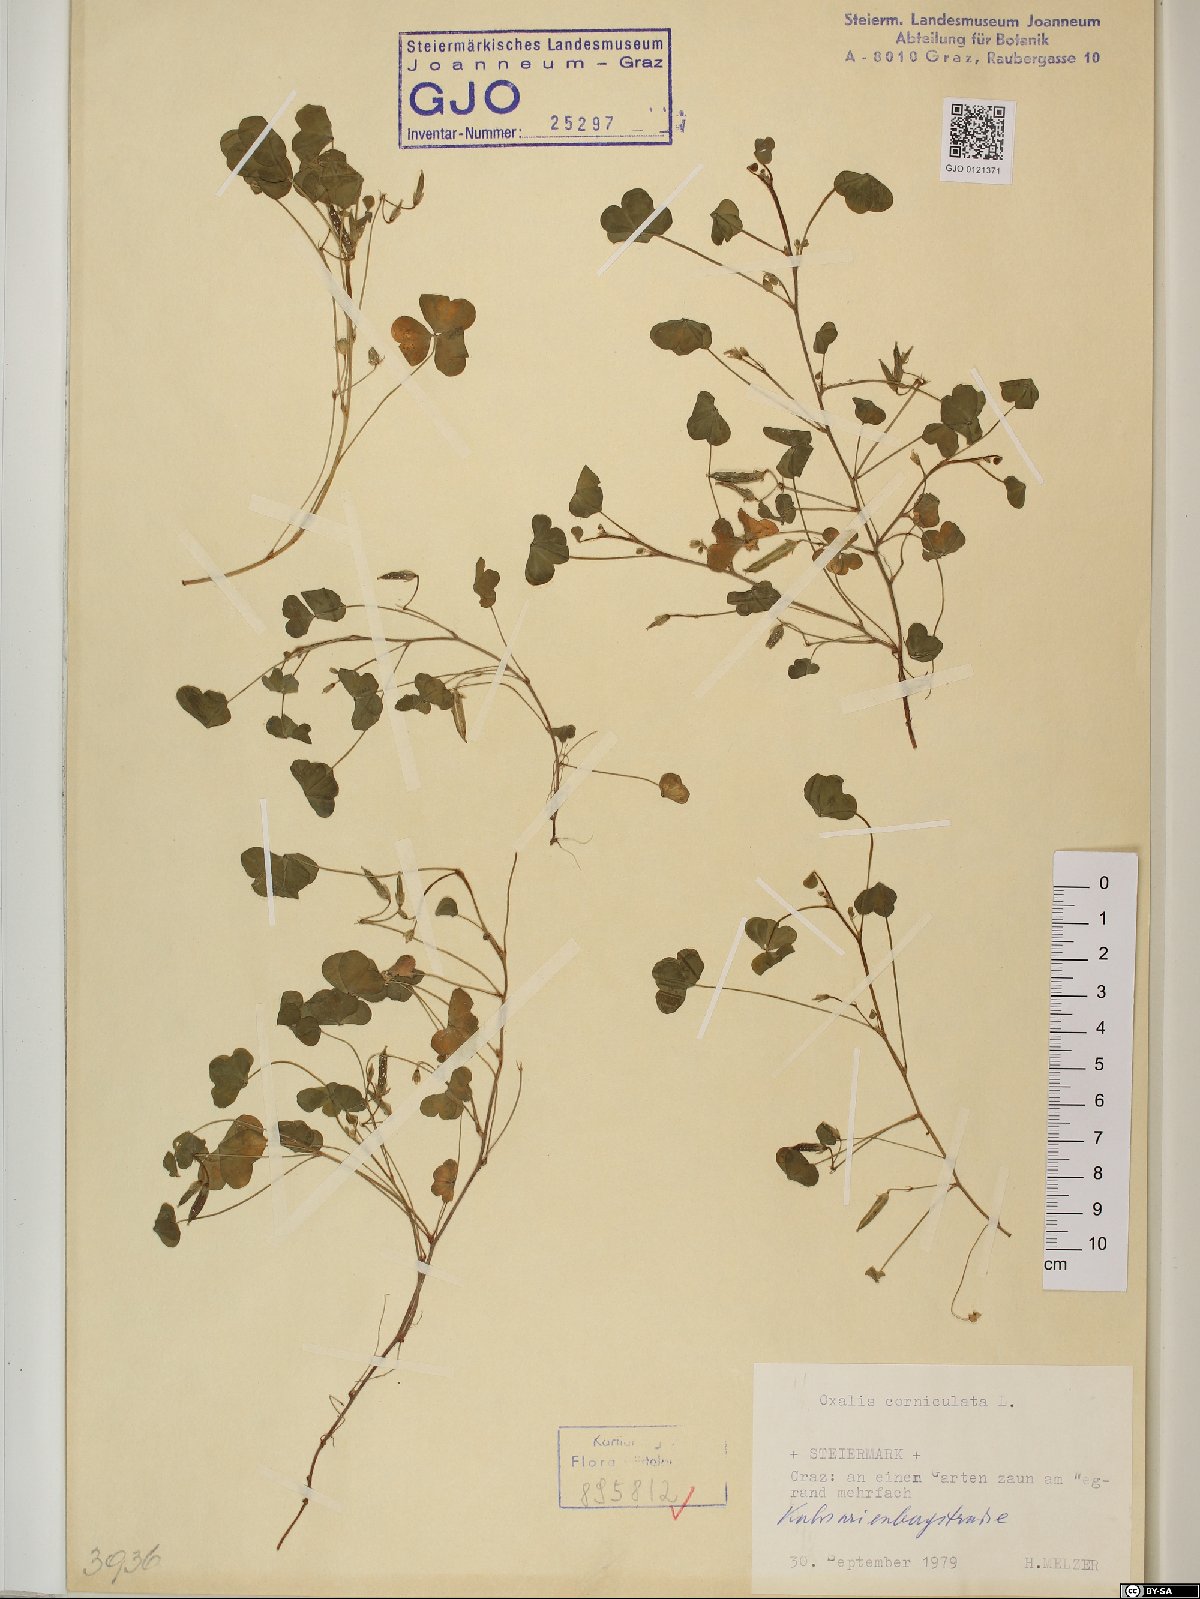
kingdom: Plantae
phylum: Tracheophyta
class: Magnoliopsida
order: Oxalidales
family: Oxalidaceae
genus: Oxalis
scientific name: Oxalis corniculata
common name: Procumbent yellow-sorrel
